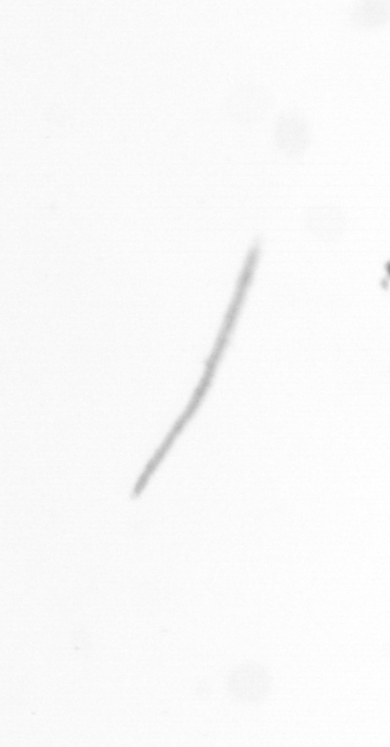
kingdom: Chromista
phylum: Ochrophyta
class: Bacillariophyceae
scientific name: Bacillariophyceae
